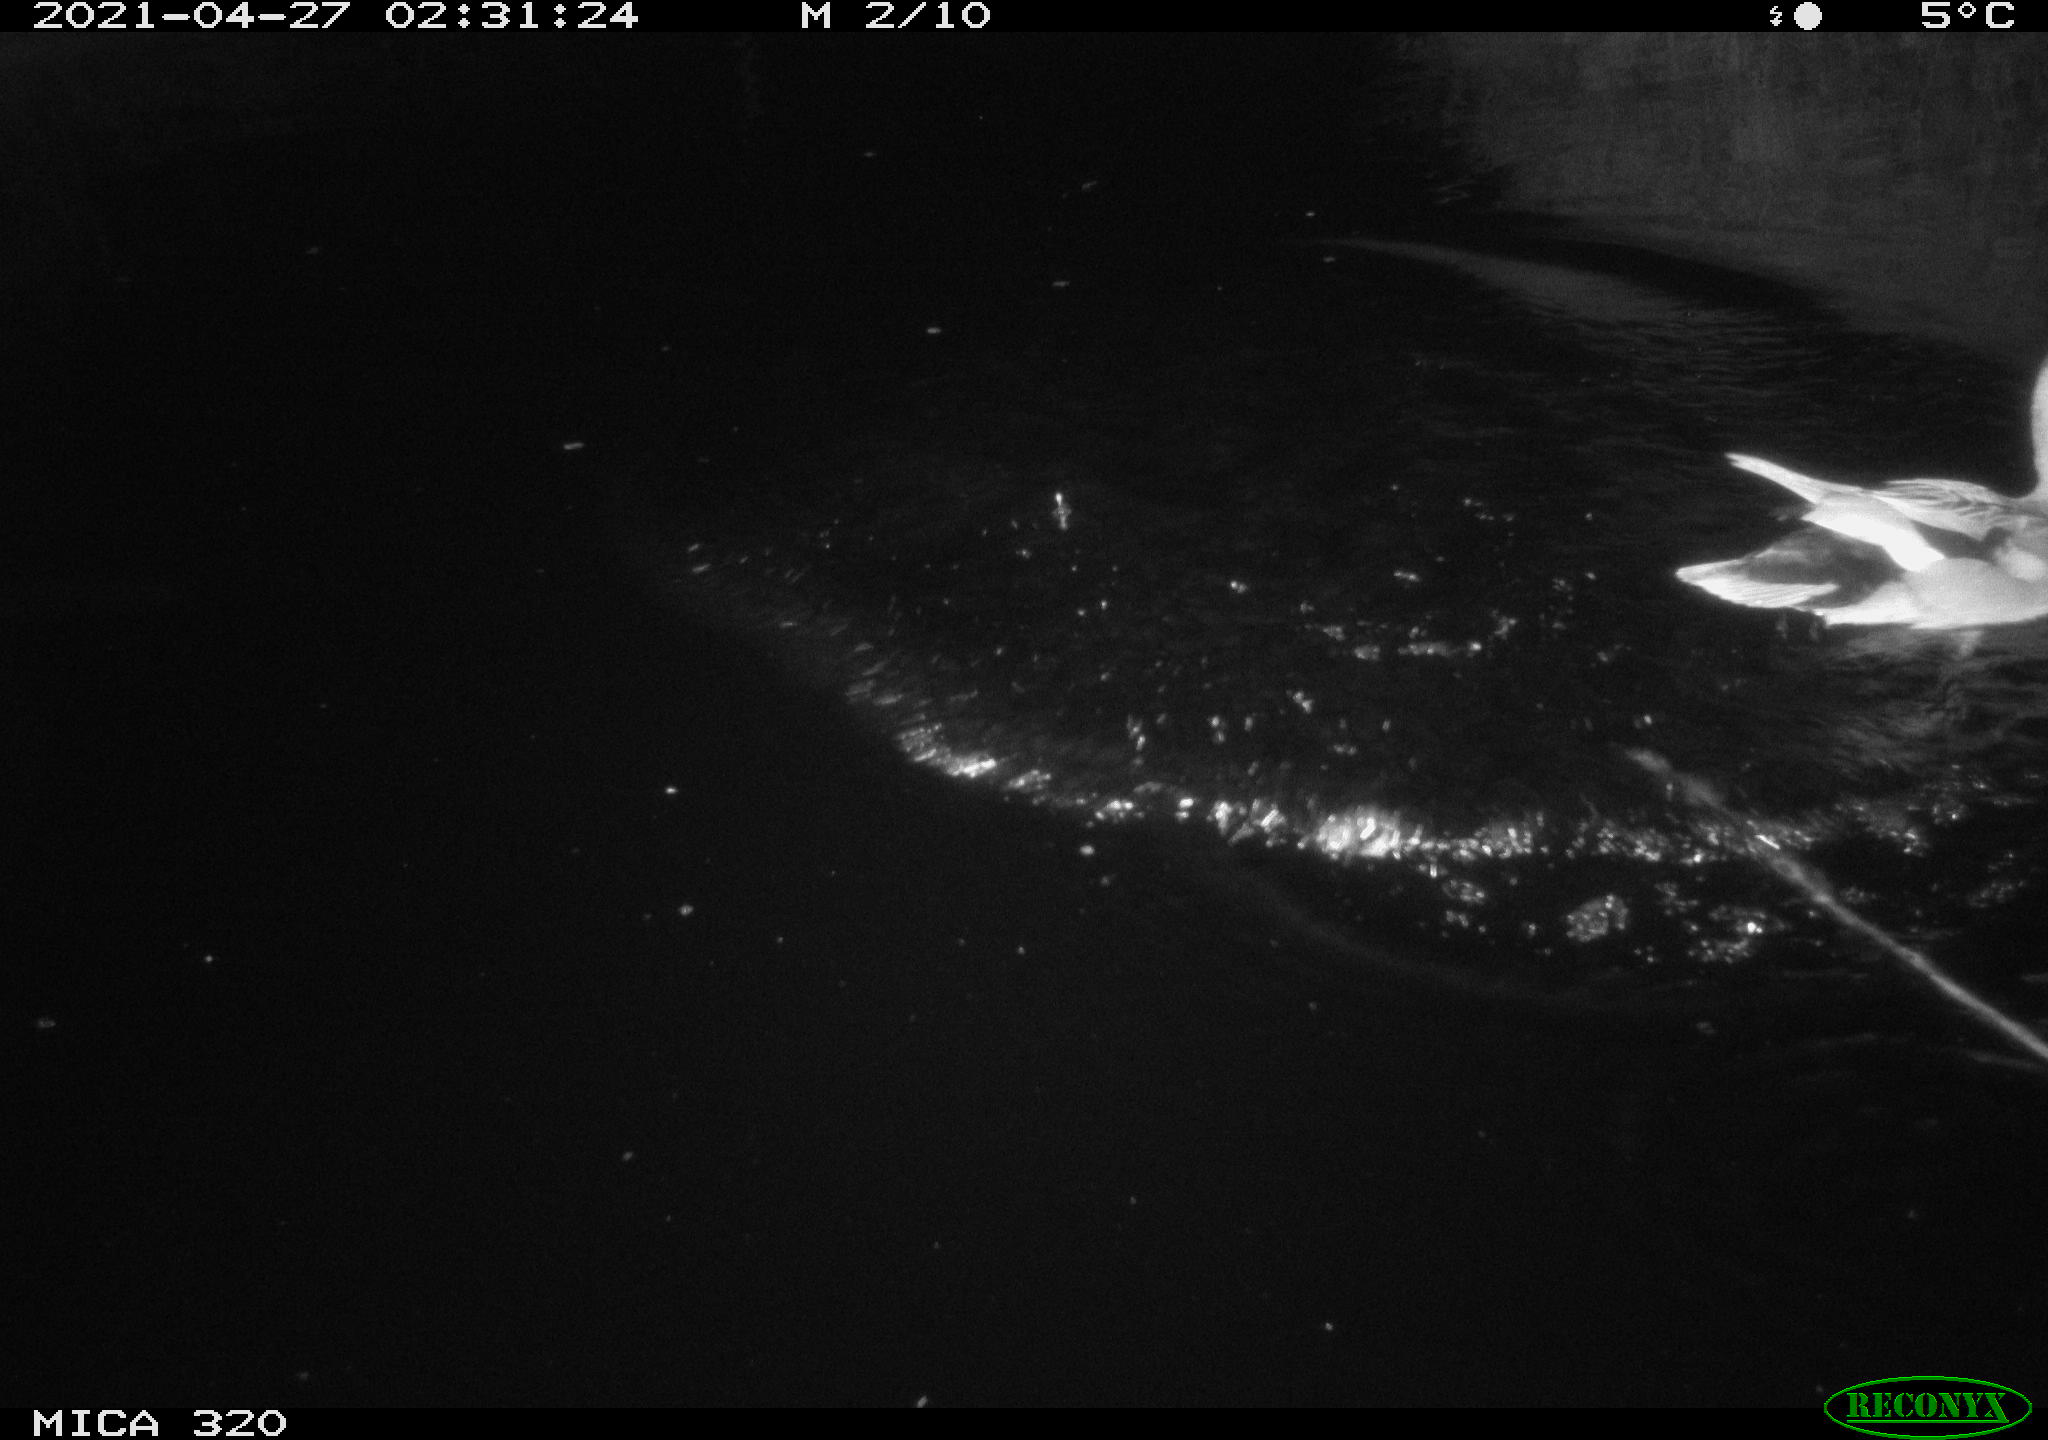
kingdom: Animalia
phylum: Chordata
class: Aves
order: Anseriformes
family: Anatidae
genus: Mareca
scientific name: Mareca strepera
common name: Gadwall
